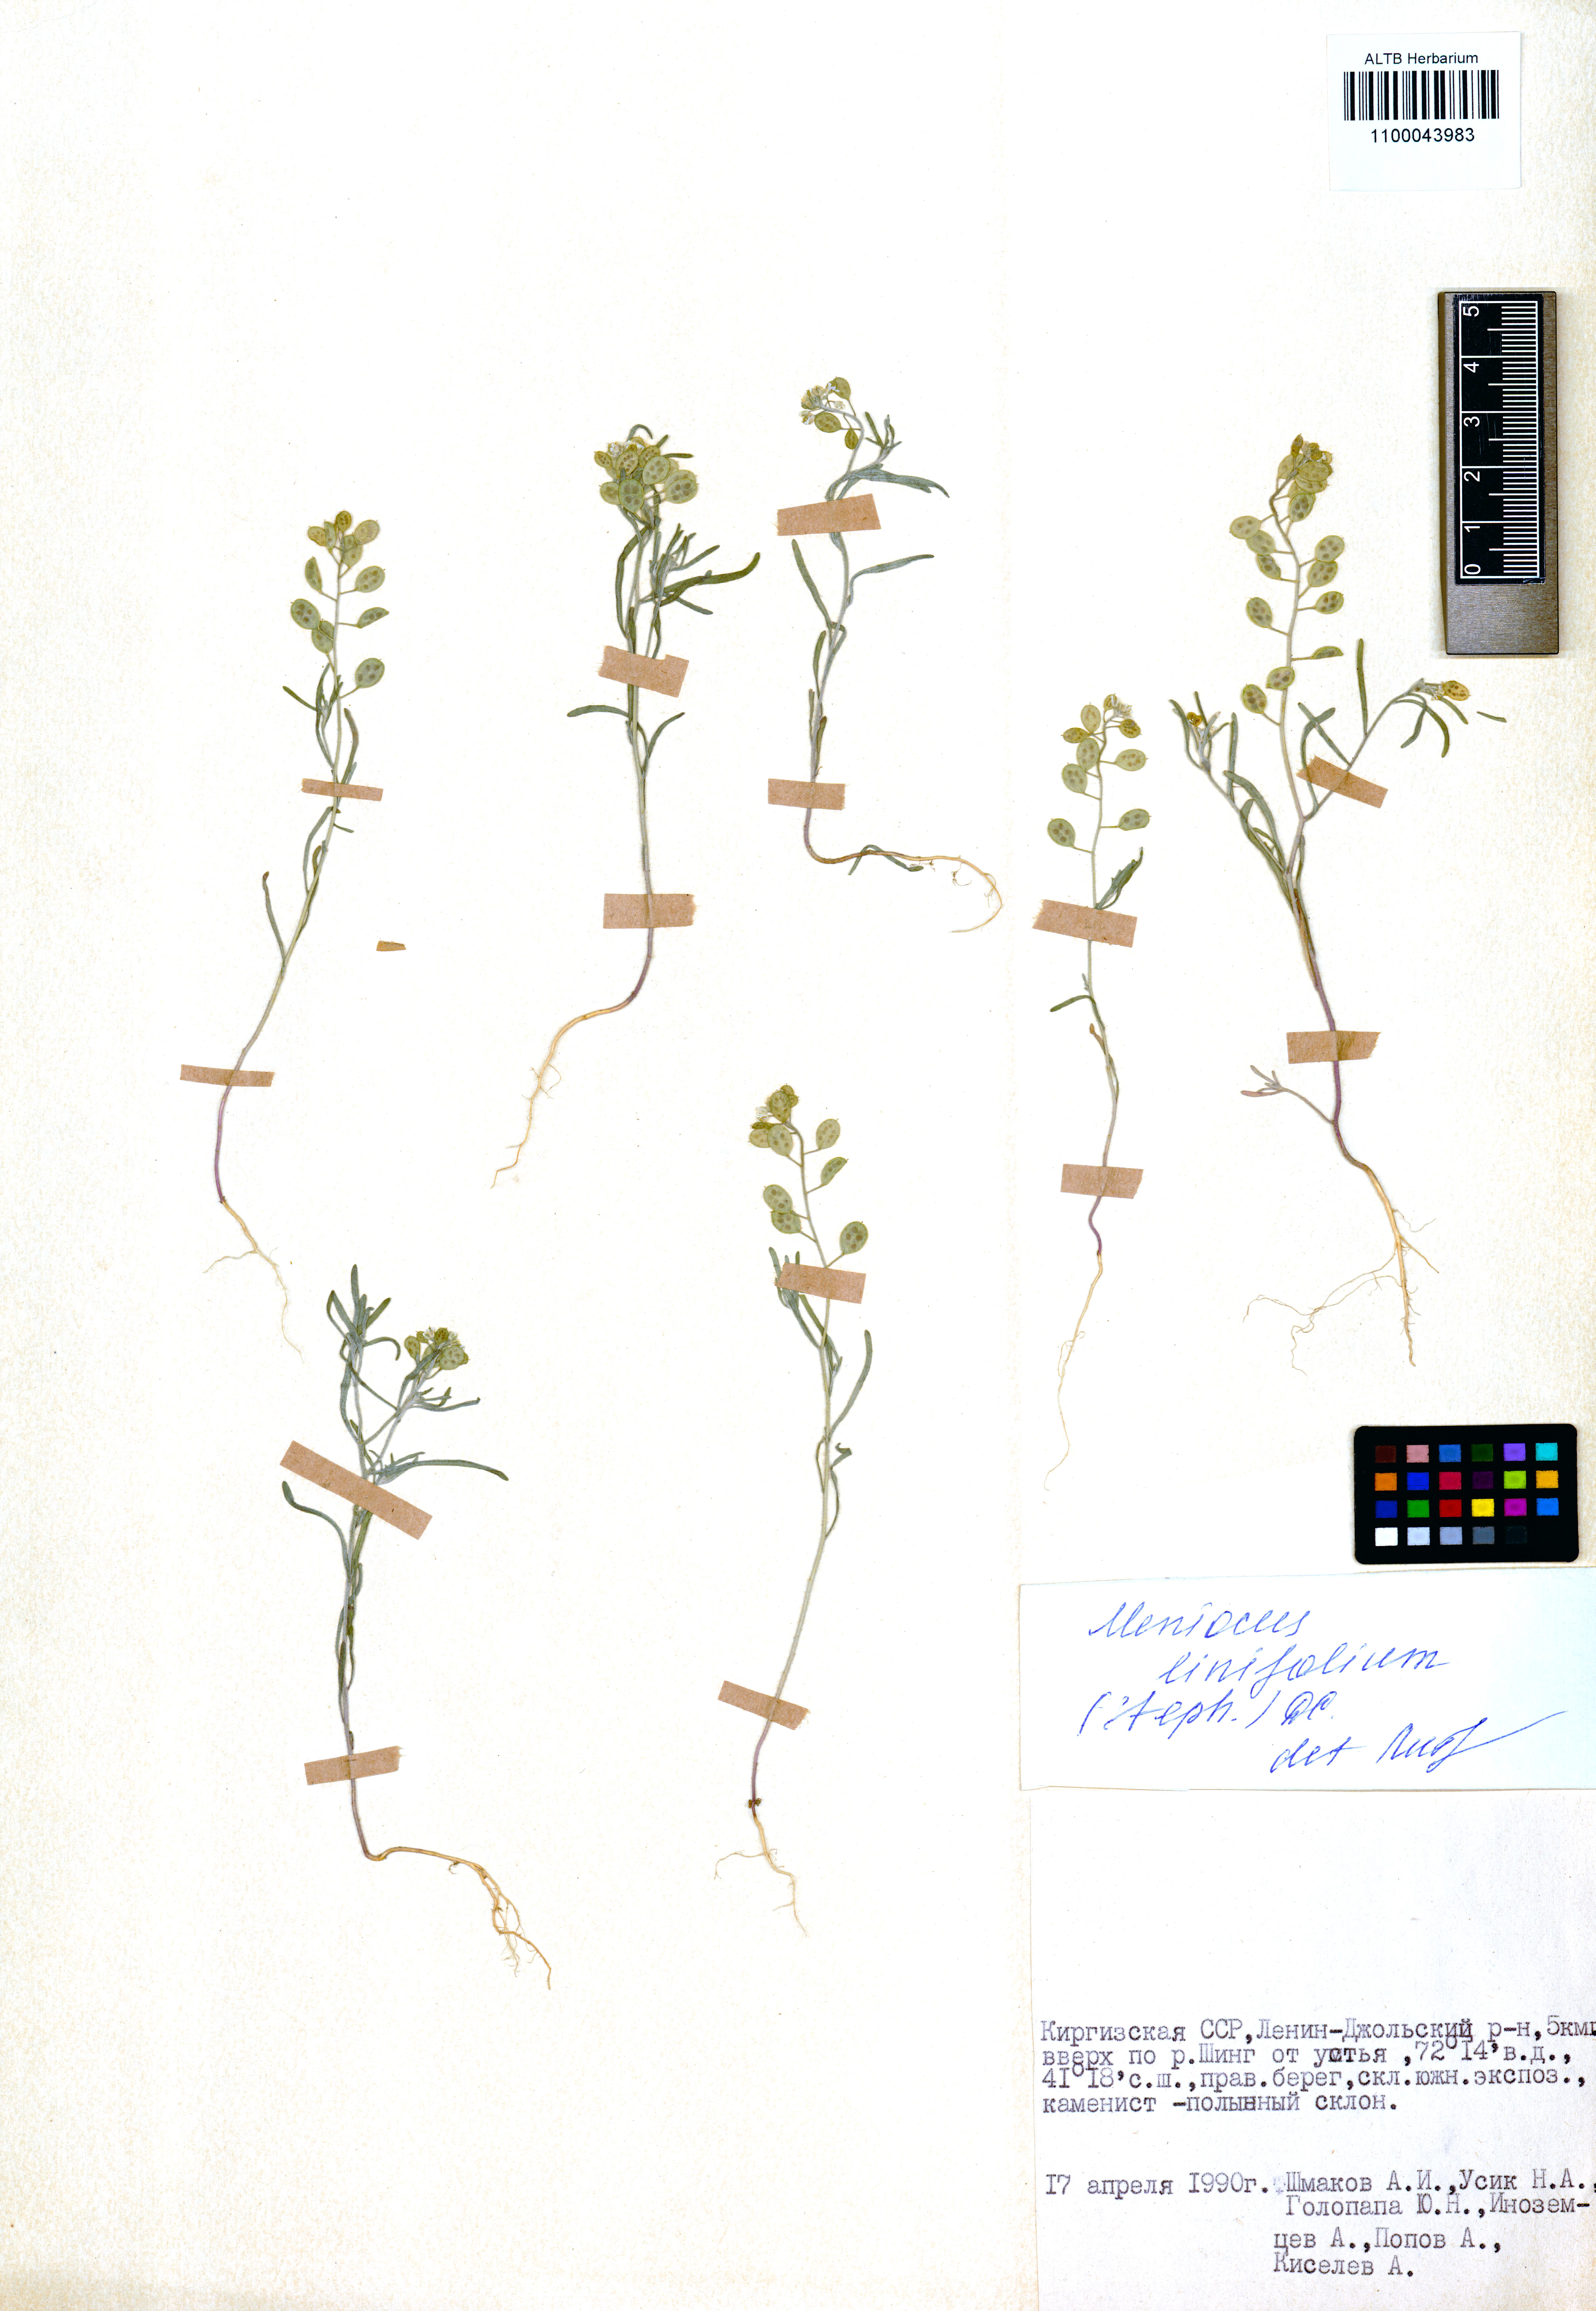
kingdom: Plantae
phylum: Tracheophyta
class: Magnoliopsida
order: Brassicales
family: Brassicaceae
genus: Meniocus
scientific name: Meniocus linifolius
